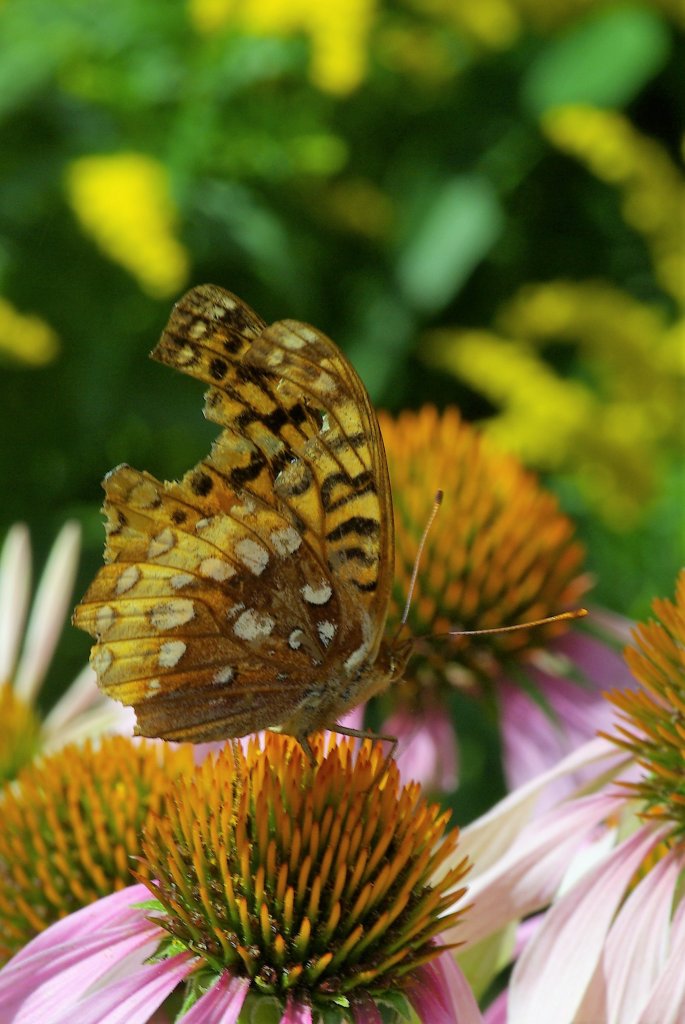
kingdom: Animalia
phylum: Arthropoda
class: Insecta
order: Lepidoptera
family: Nymphalidae
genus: Speyeria
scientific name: Speyeria cybele
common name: Great Spangled Fritillary
